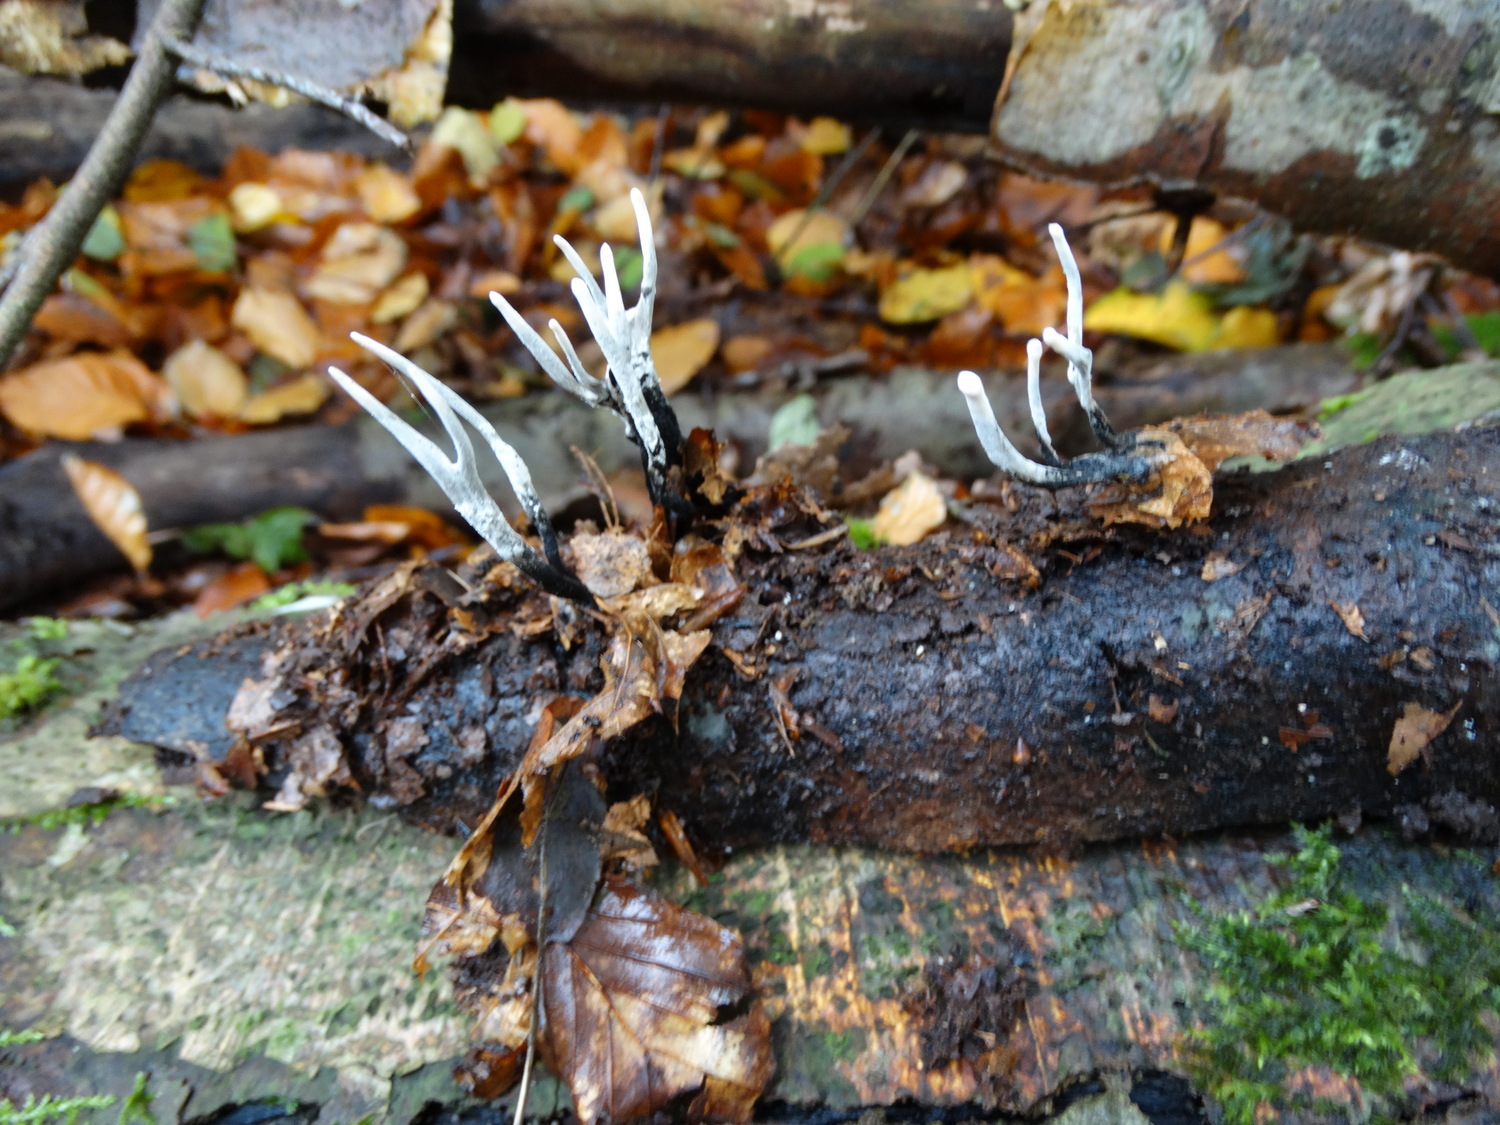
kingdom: Fungi
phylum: Ascomycota
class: Sordariomycetes
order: Xylariales
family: Xylariaceae
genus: Xylaria
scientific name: Xylaria hypoxylon
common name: grenet stødsvamp
